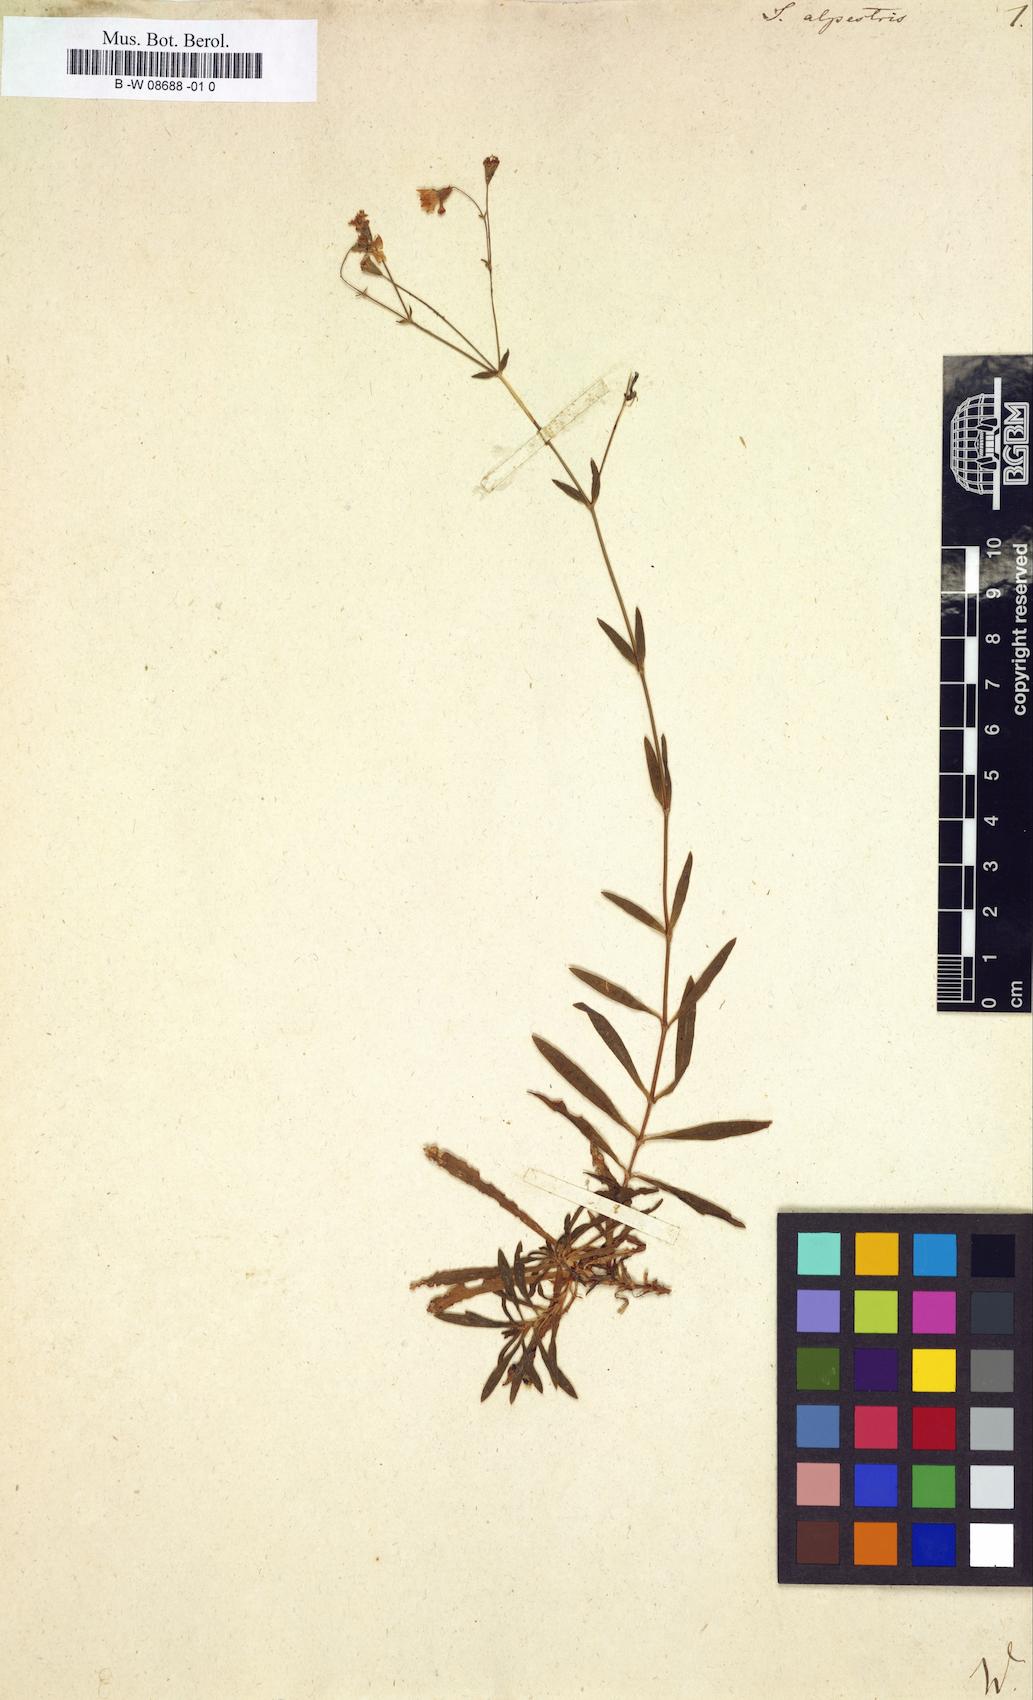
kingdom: Plantae
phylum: Tracheophyta
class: Magnoliopsida
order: Caryophyllales
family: Caryophyllaceae
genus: Heliosperma
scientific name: Heliosperma alpestre
